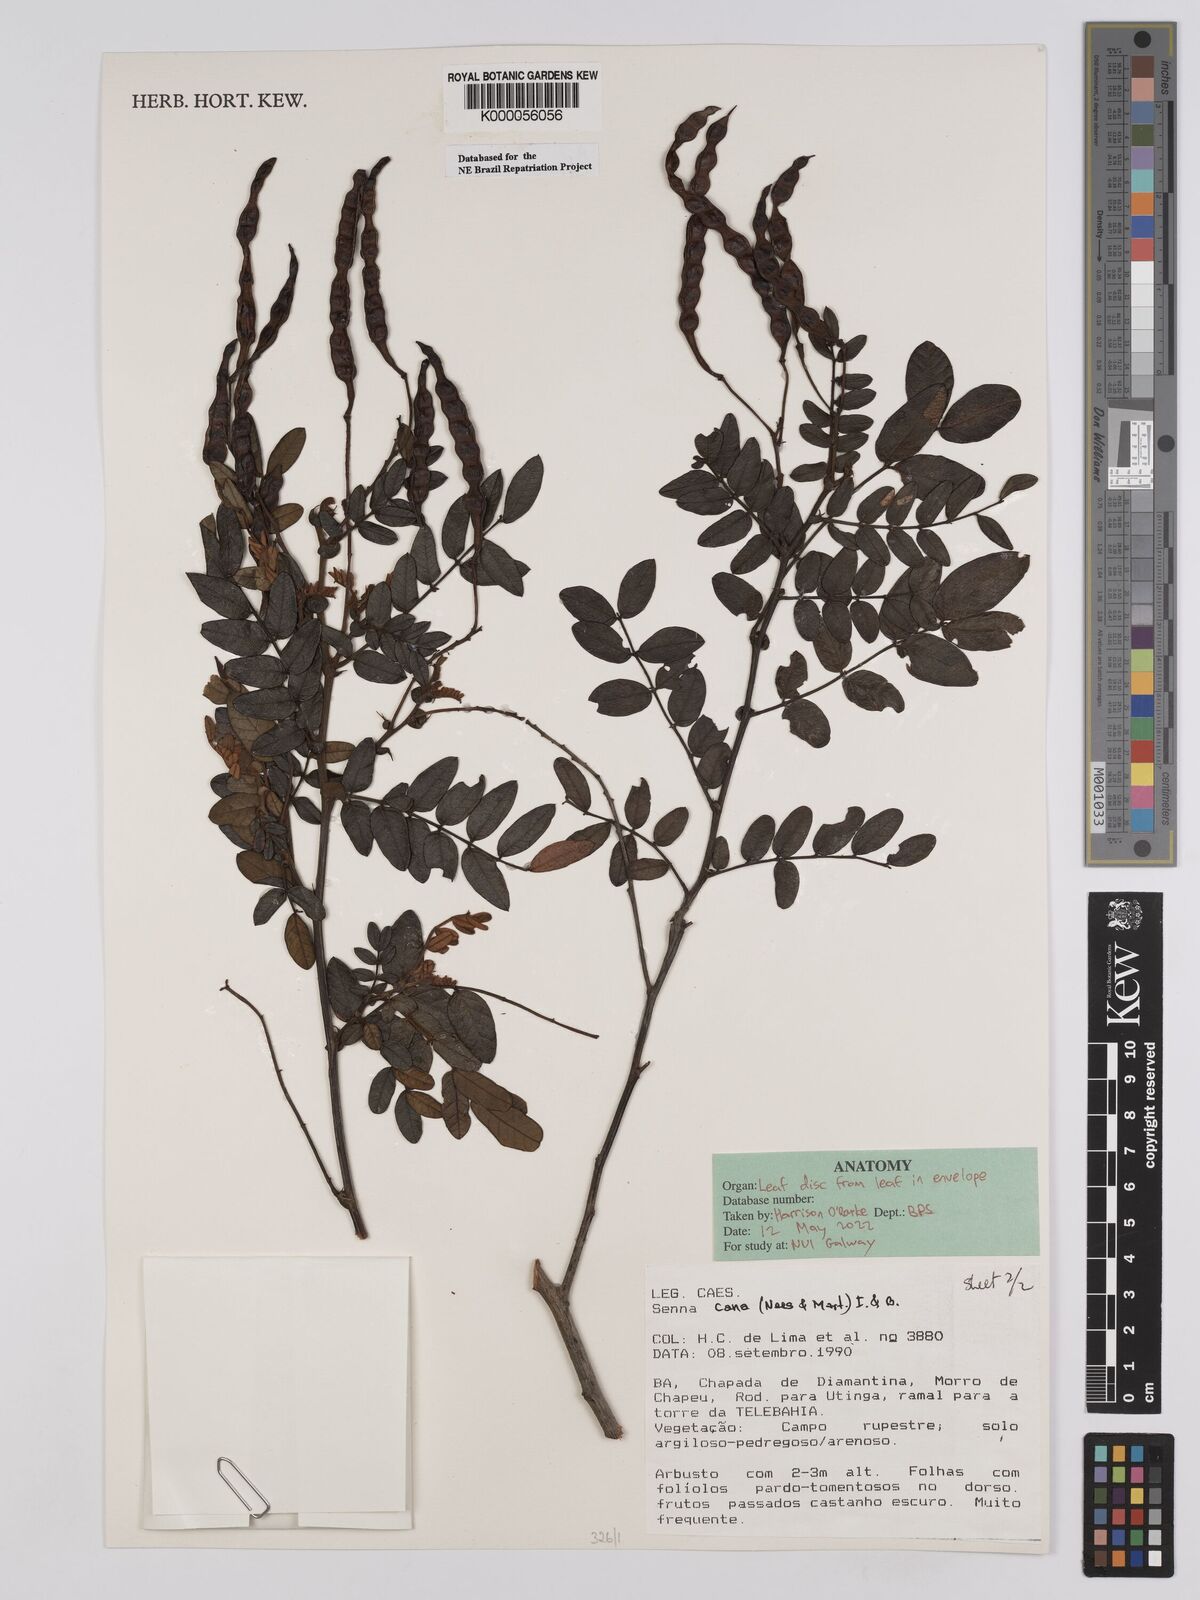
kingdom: Plantae
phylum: Tracheophyta
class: Magnoliopsida
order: Fabales
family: Fabaceae
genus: Senna
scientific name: Senna cana
